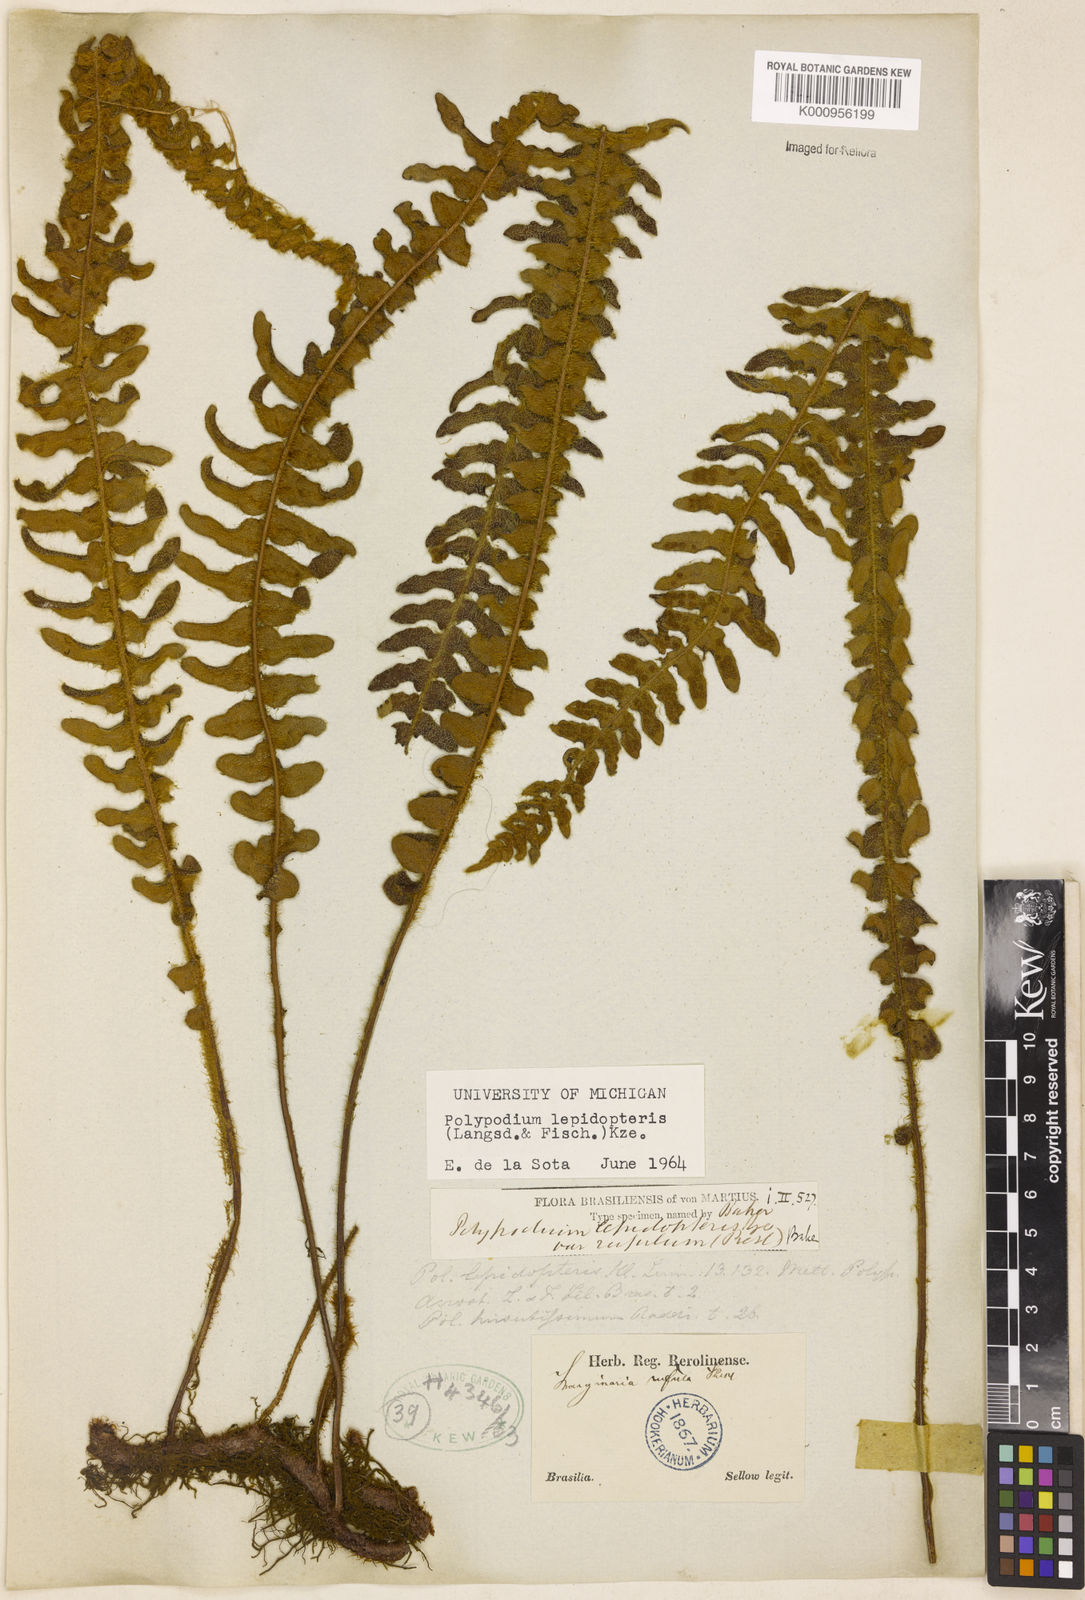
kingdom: Plantae
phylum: Tracheophyta
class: Polypodiopsida
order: Polypodiales
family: Polypodiaceae
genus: Pleopeltis
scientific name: Pleopeltis lepidopteris
